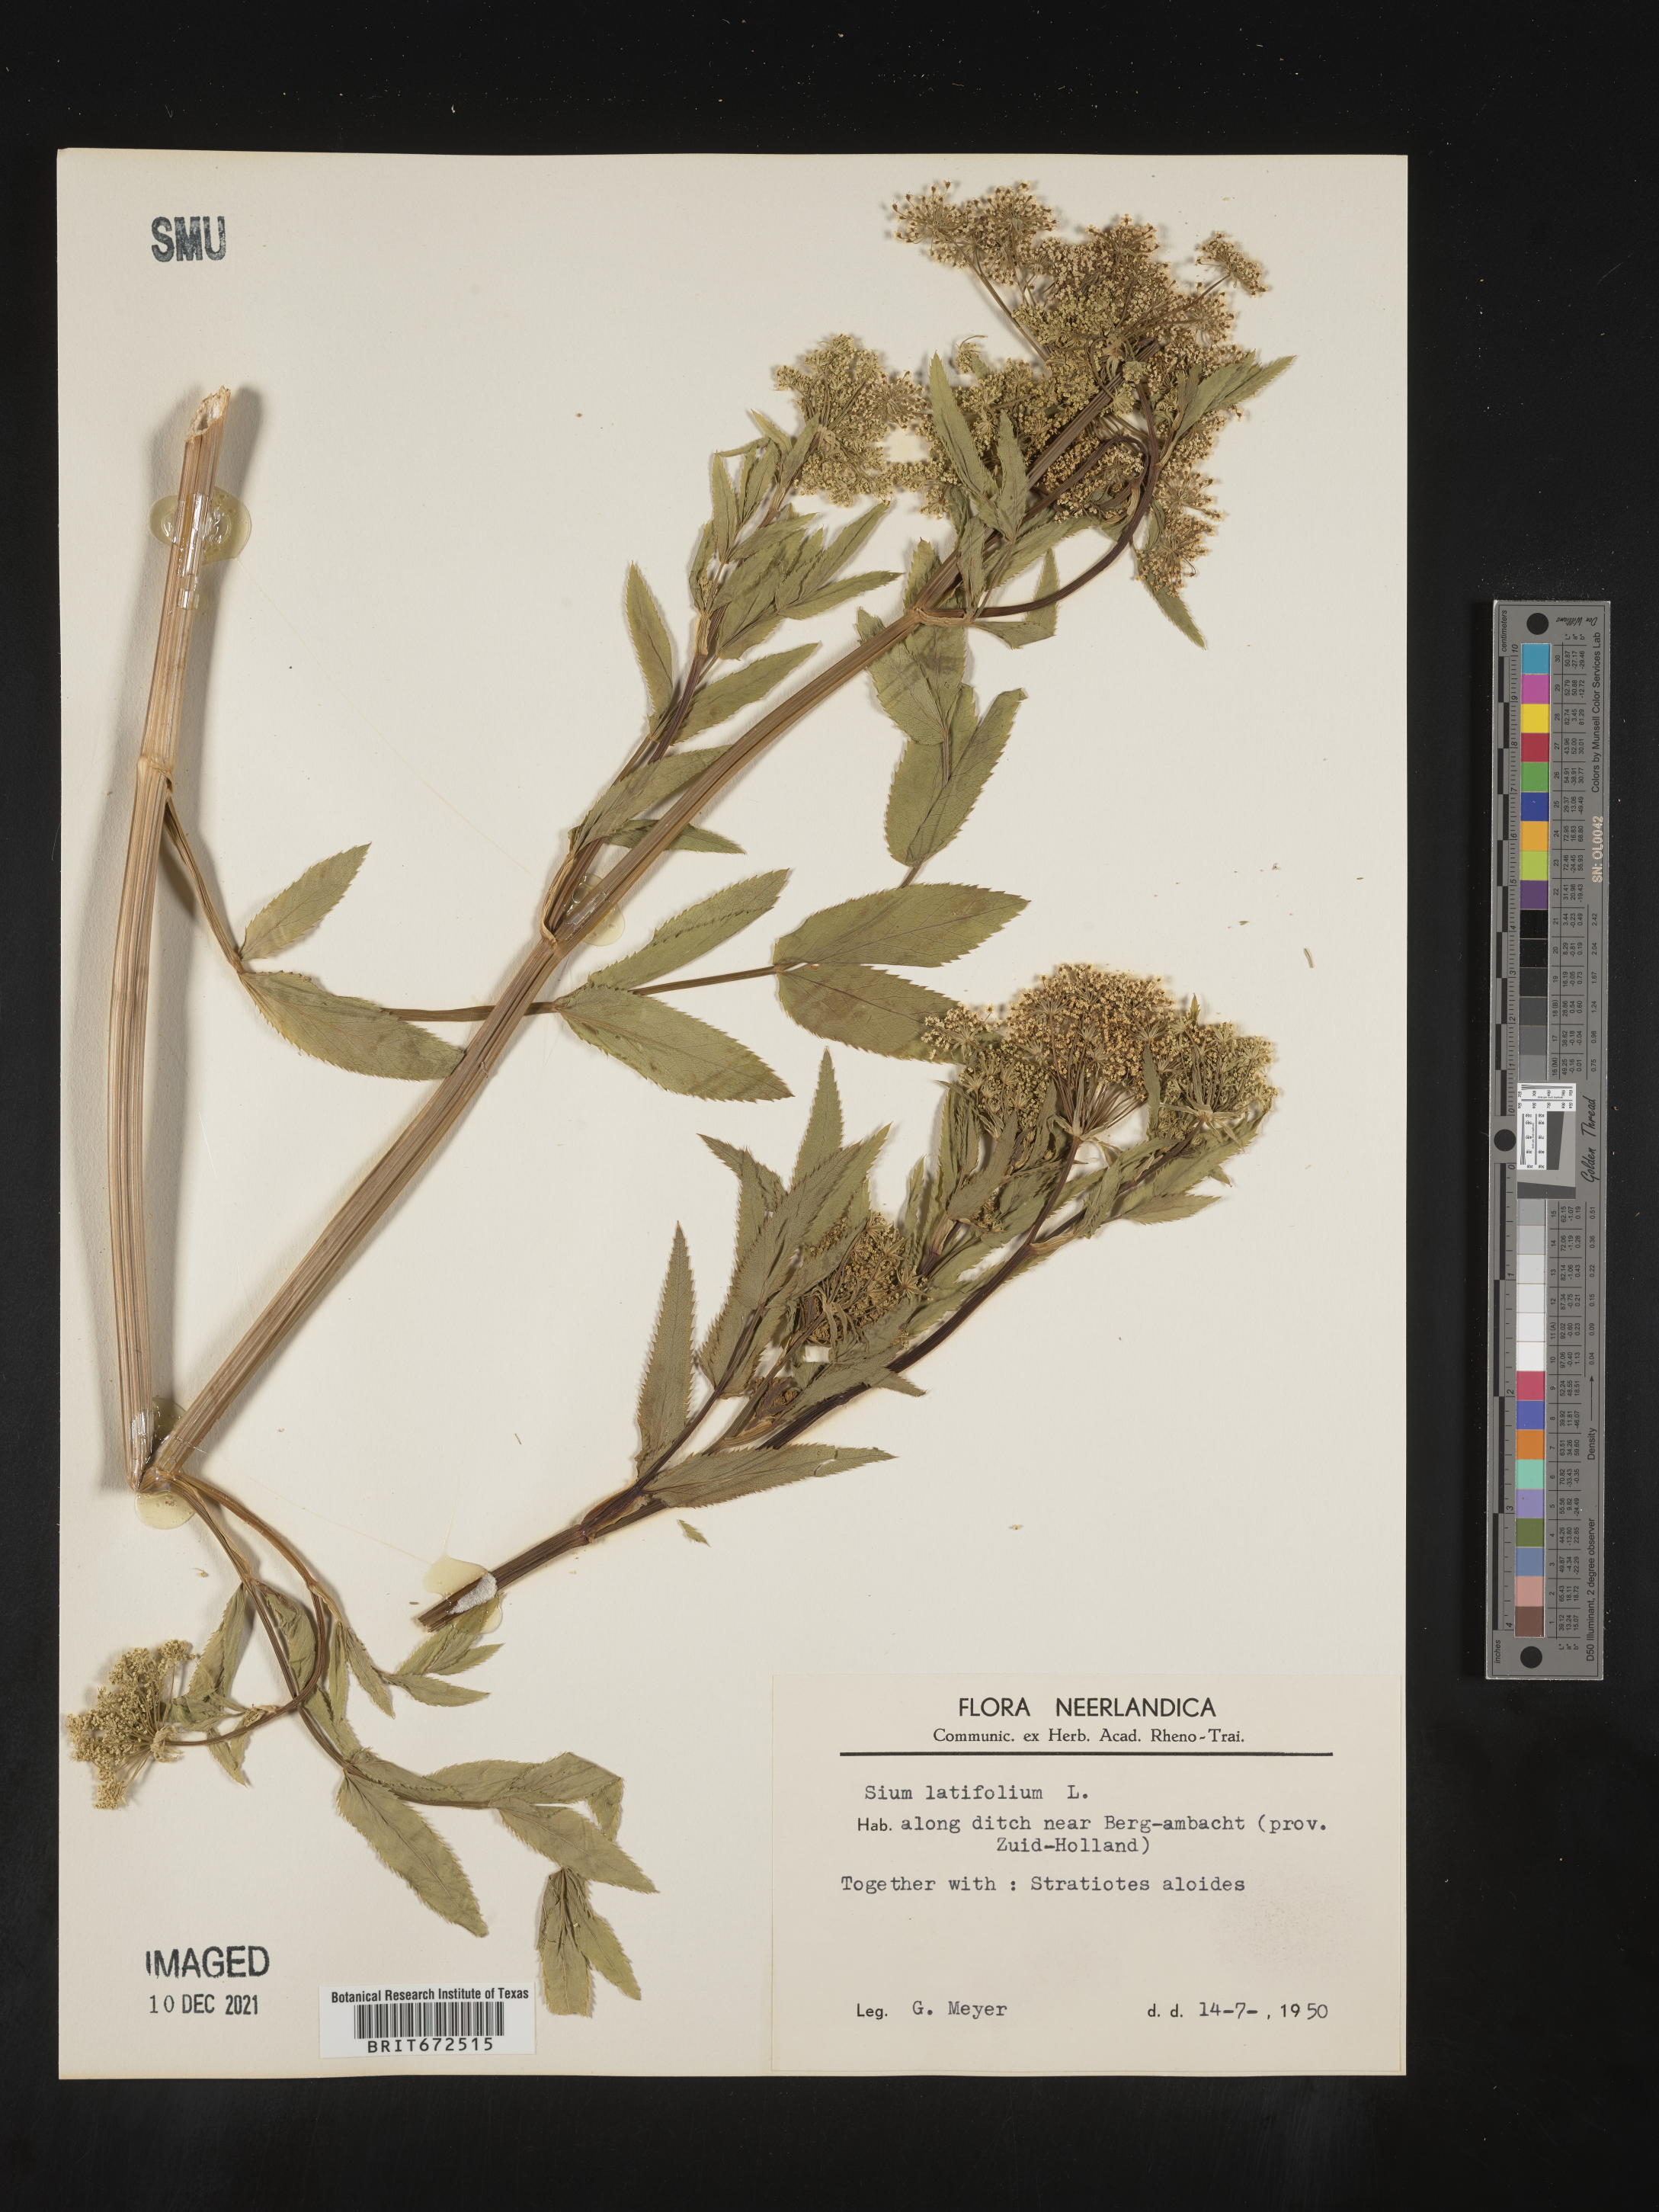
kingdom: Plantae
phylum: Tracheophyta
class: Magnoliopsida
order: Apiales
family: Apiaceae
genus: Sium
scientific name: Sium
